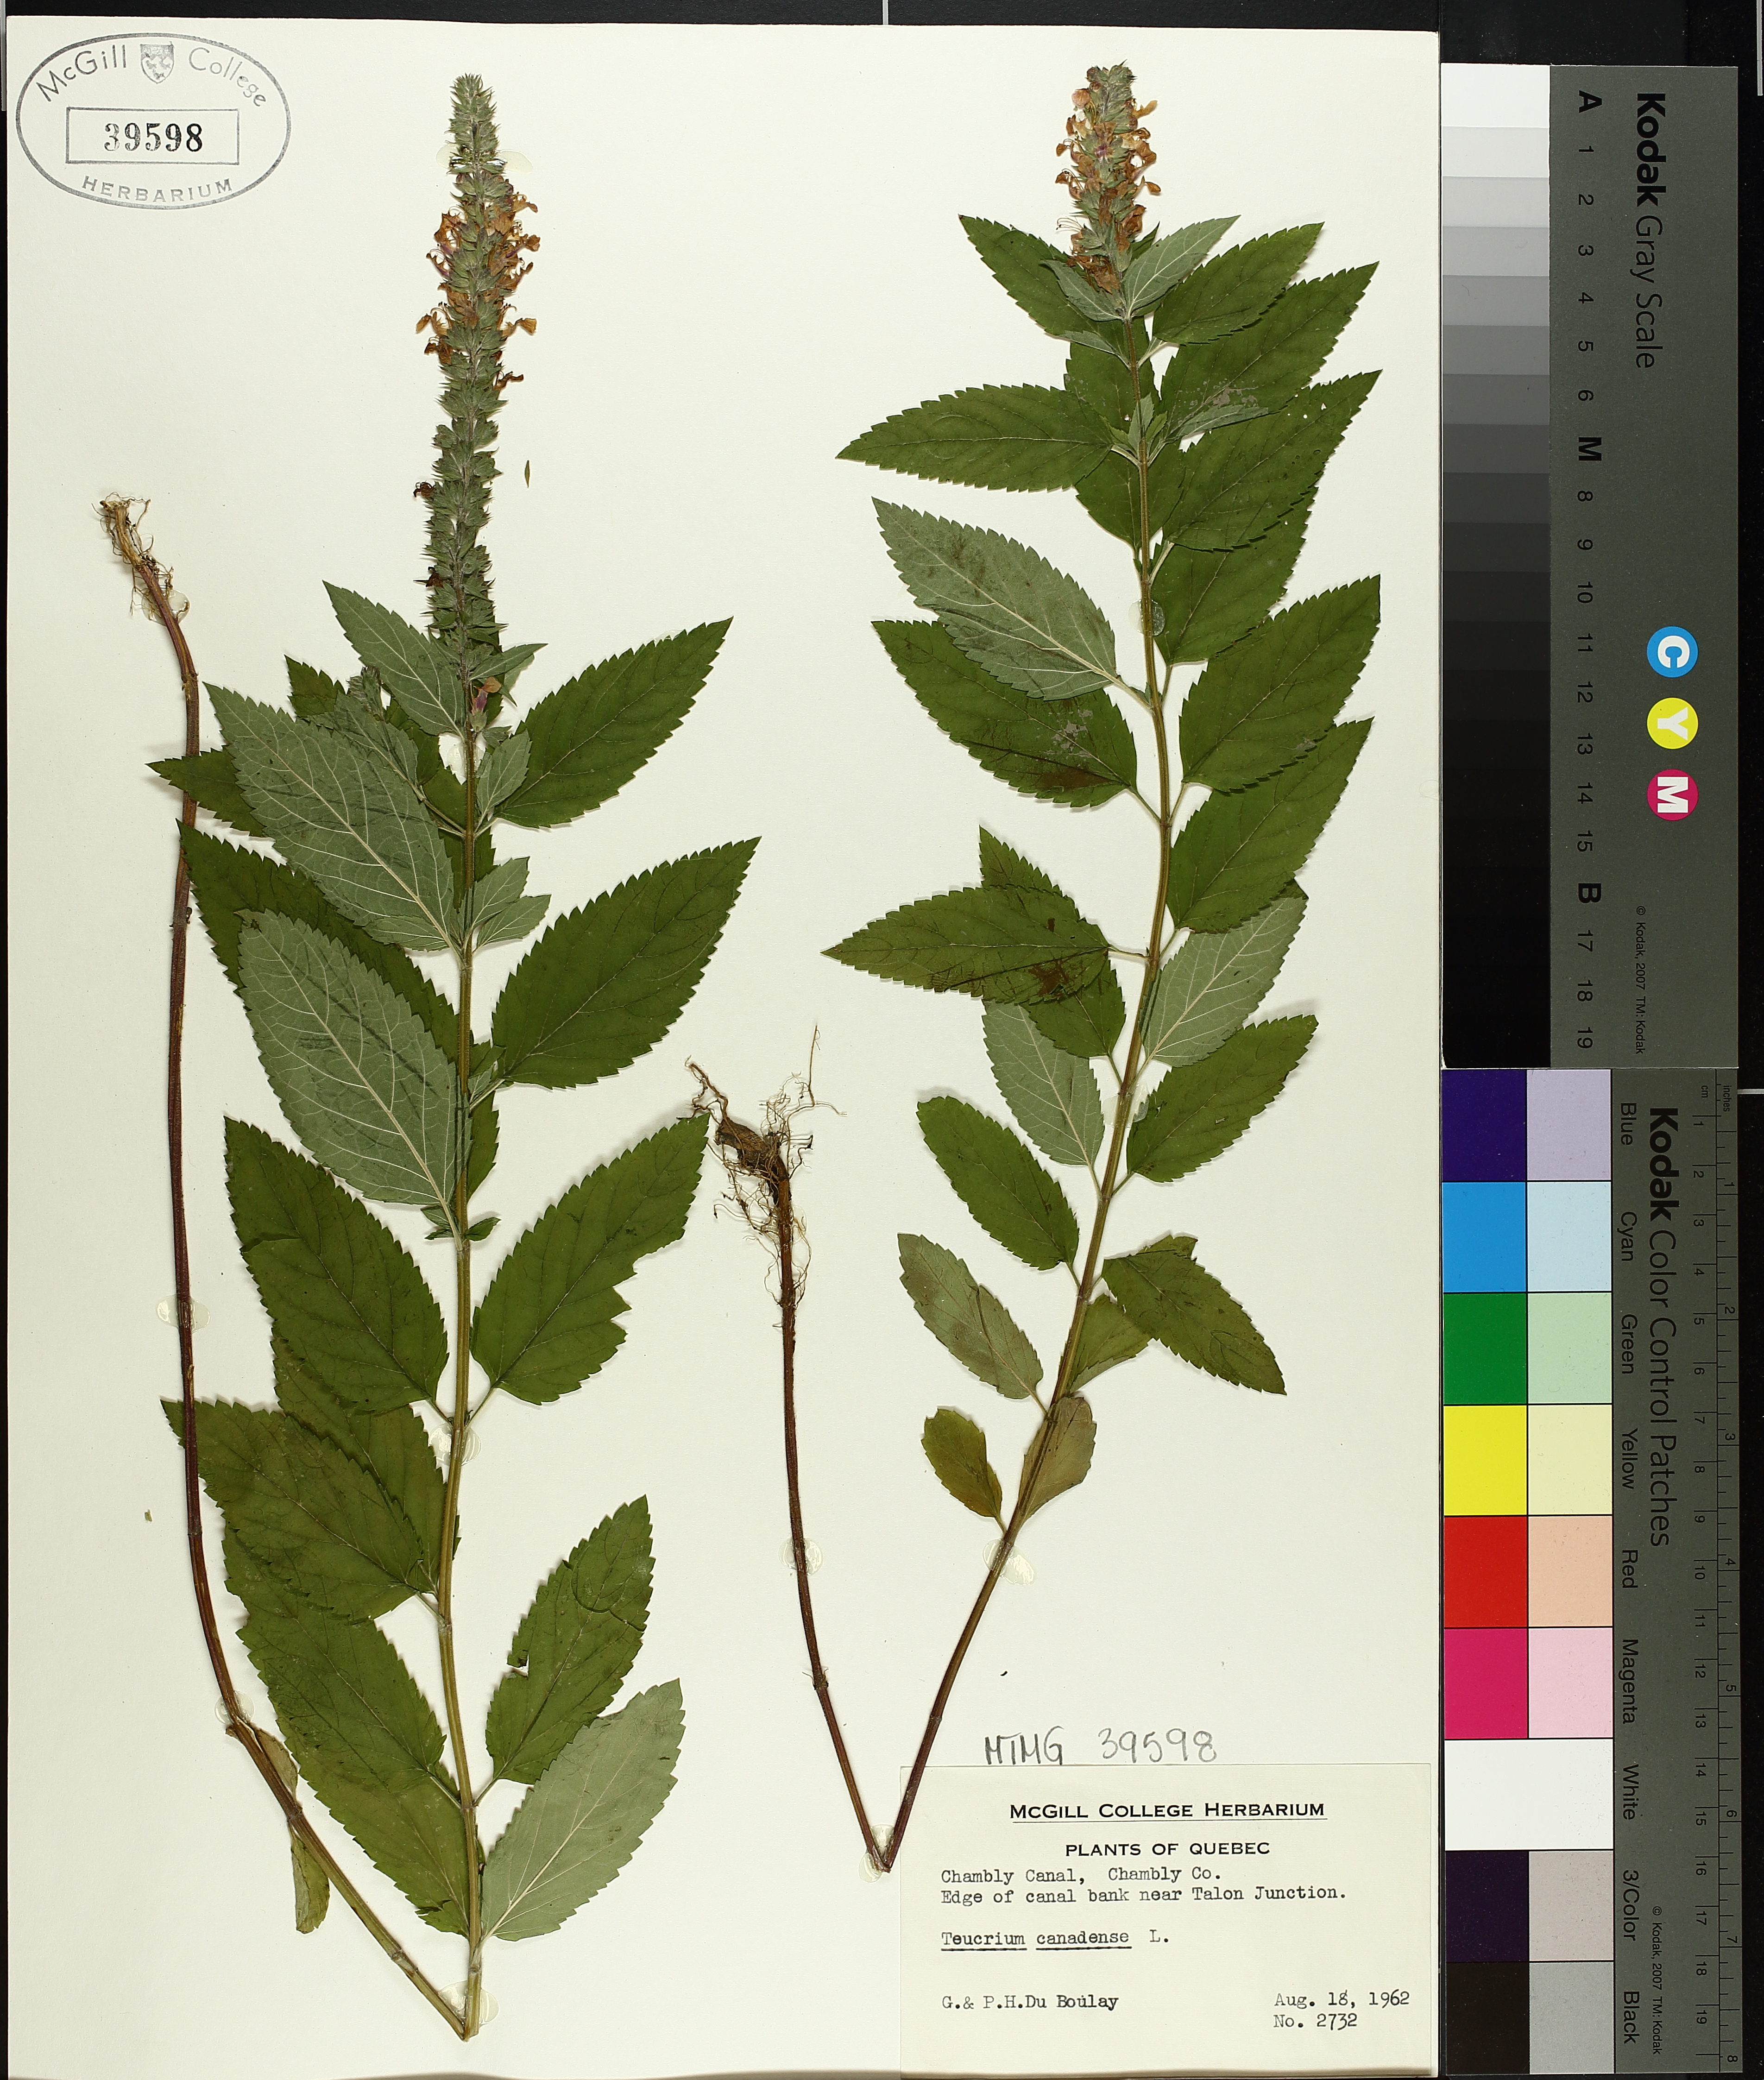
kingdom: Plantae
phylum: Tracheophyta
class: Magnoliopsida
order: Lamiales
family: Lamiaceae
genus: Teucrium
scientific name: Teucrium canadense
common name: American germander
